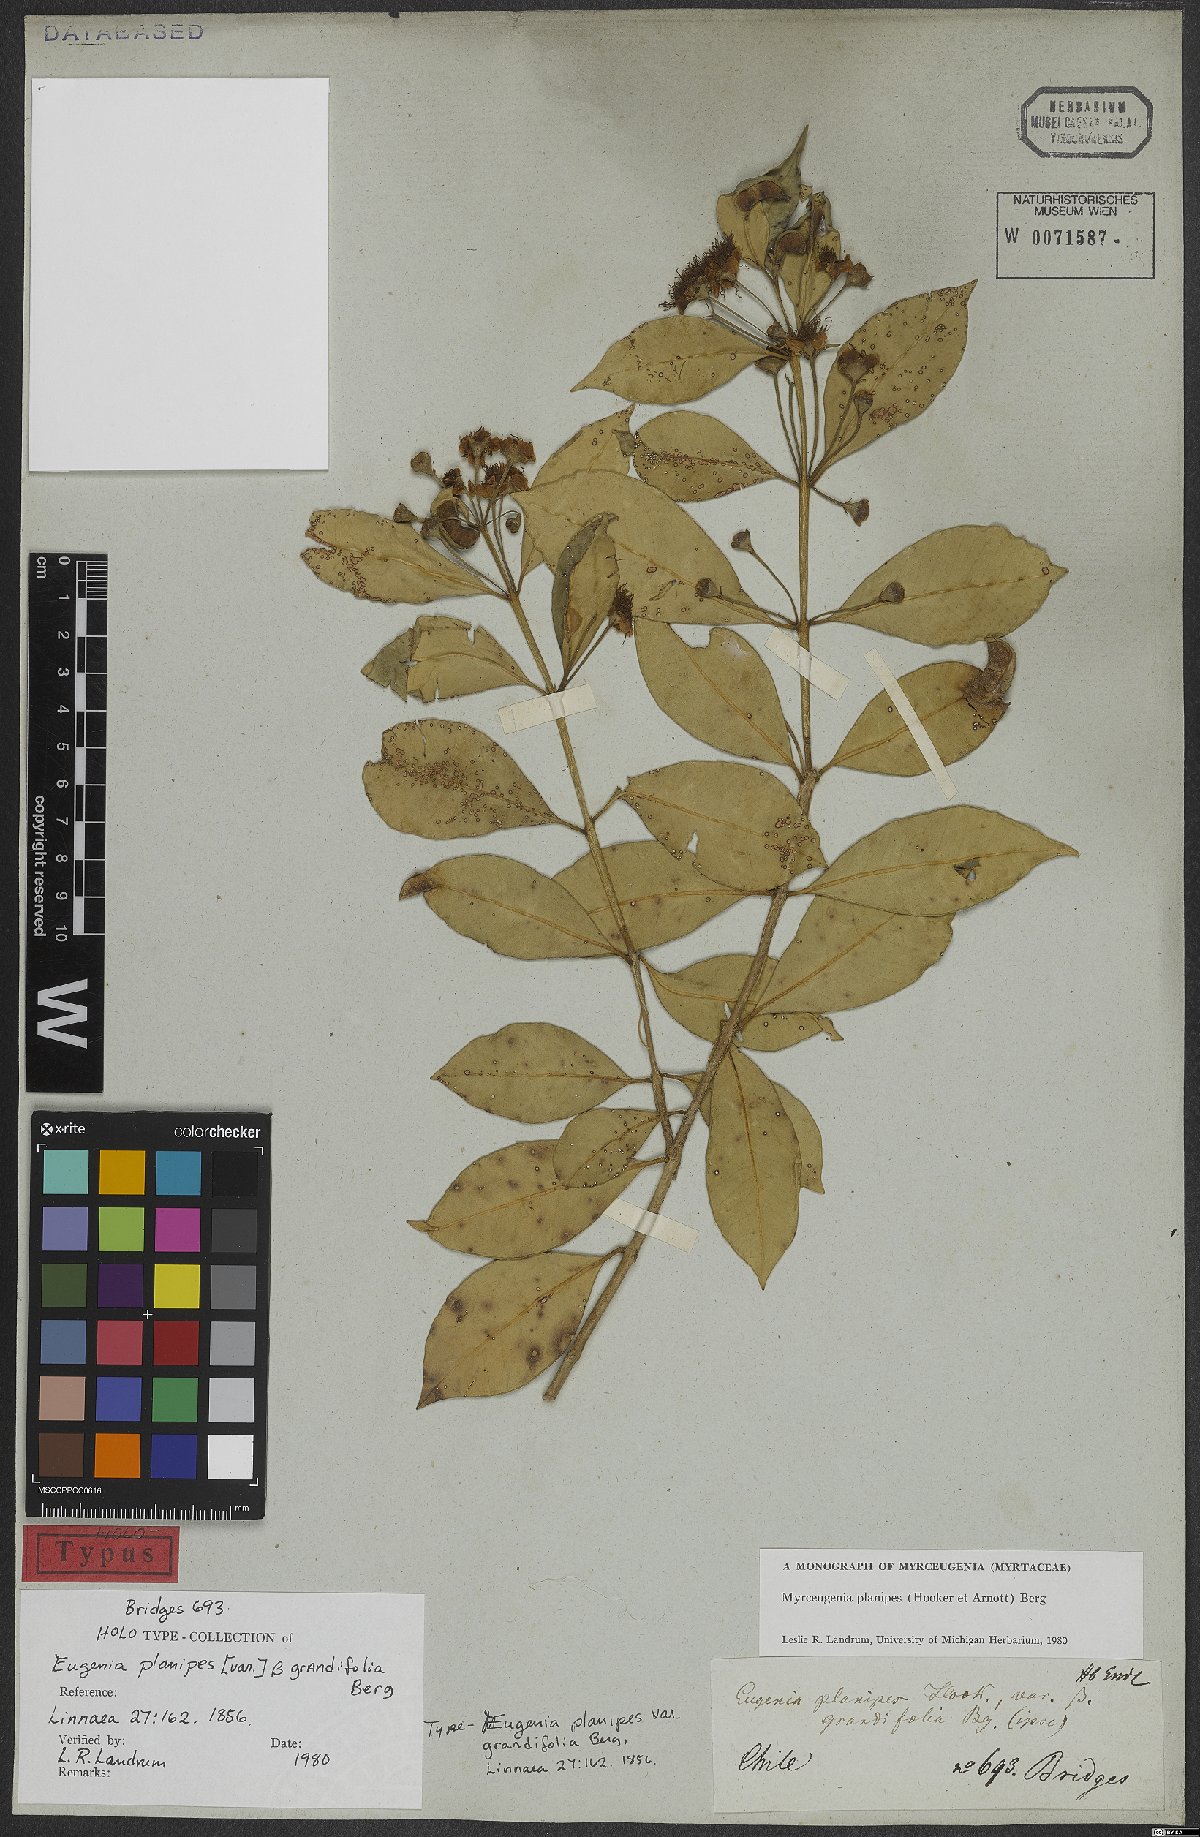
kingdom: Plantae
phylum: Tracheophyta
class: Magnoliopsida
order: Myrtales
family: Myrtaceae
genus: Myrceugenia
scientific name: Myrceugenia planipes
